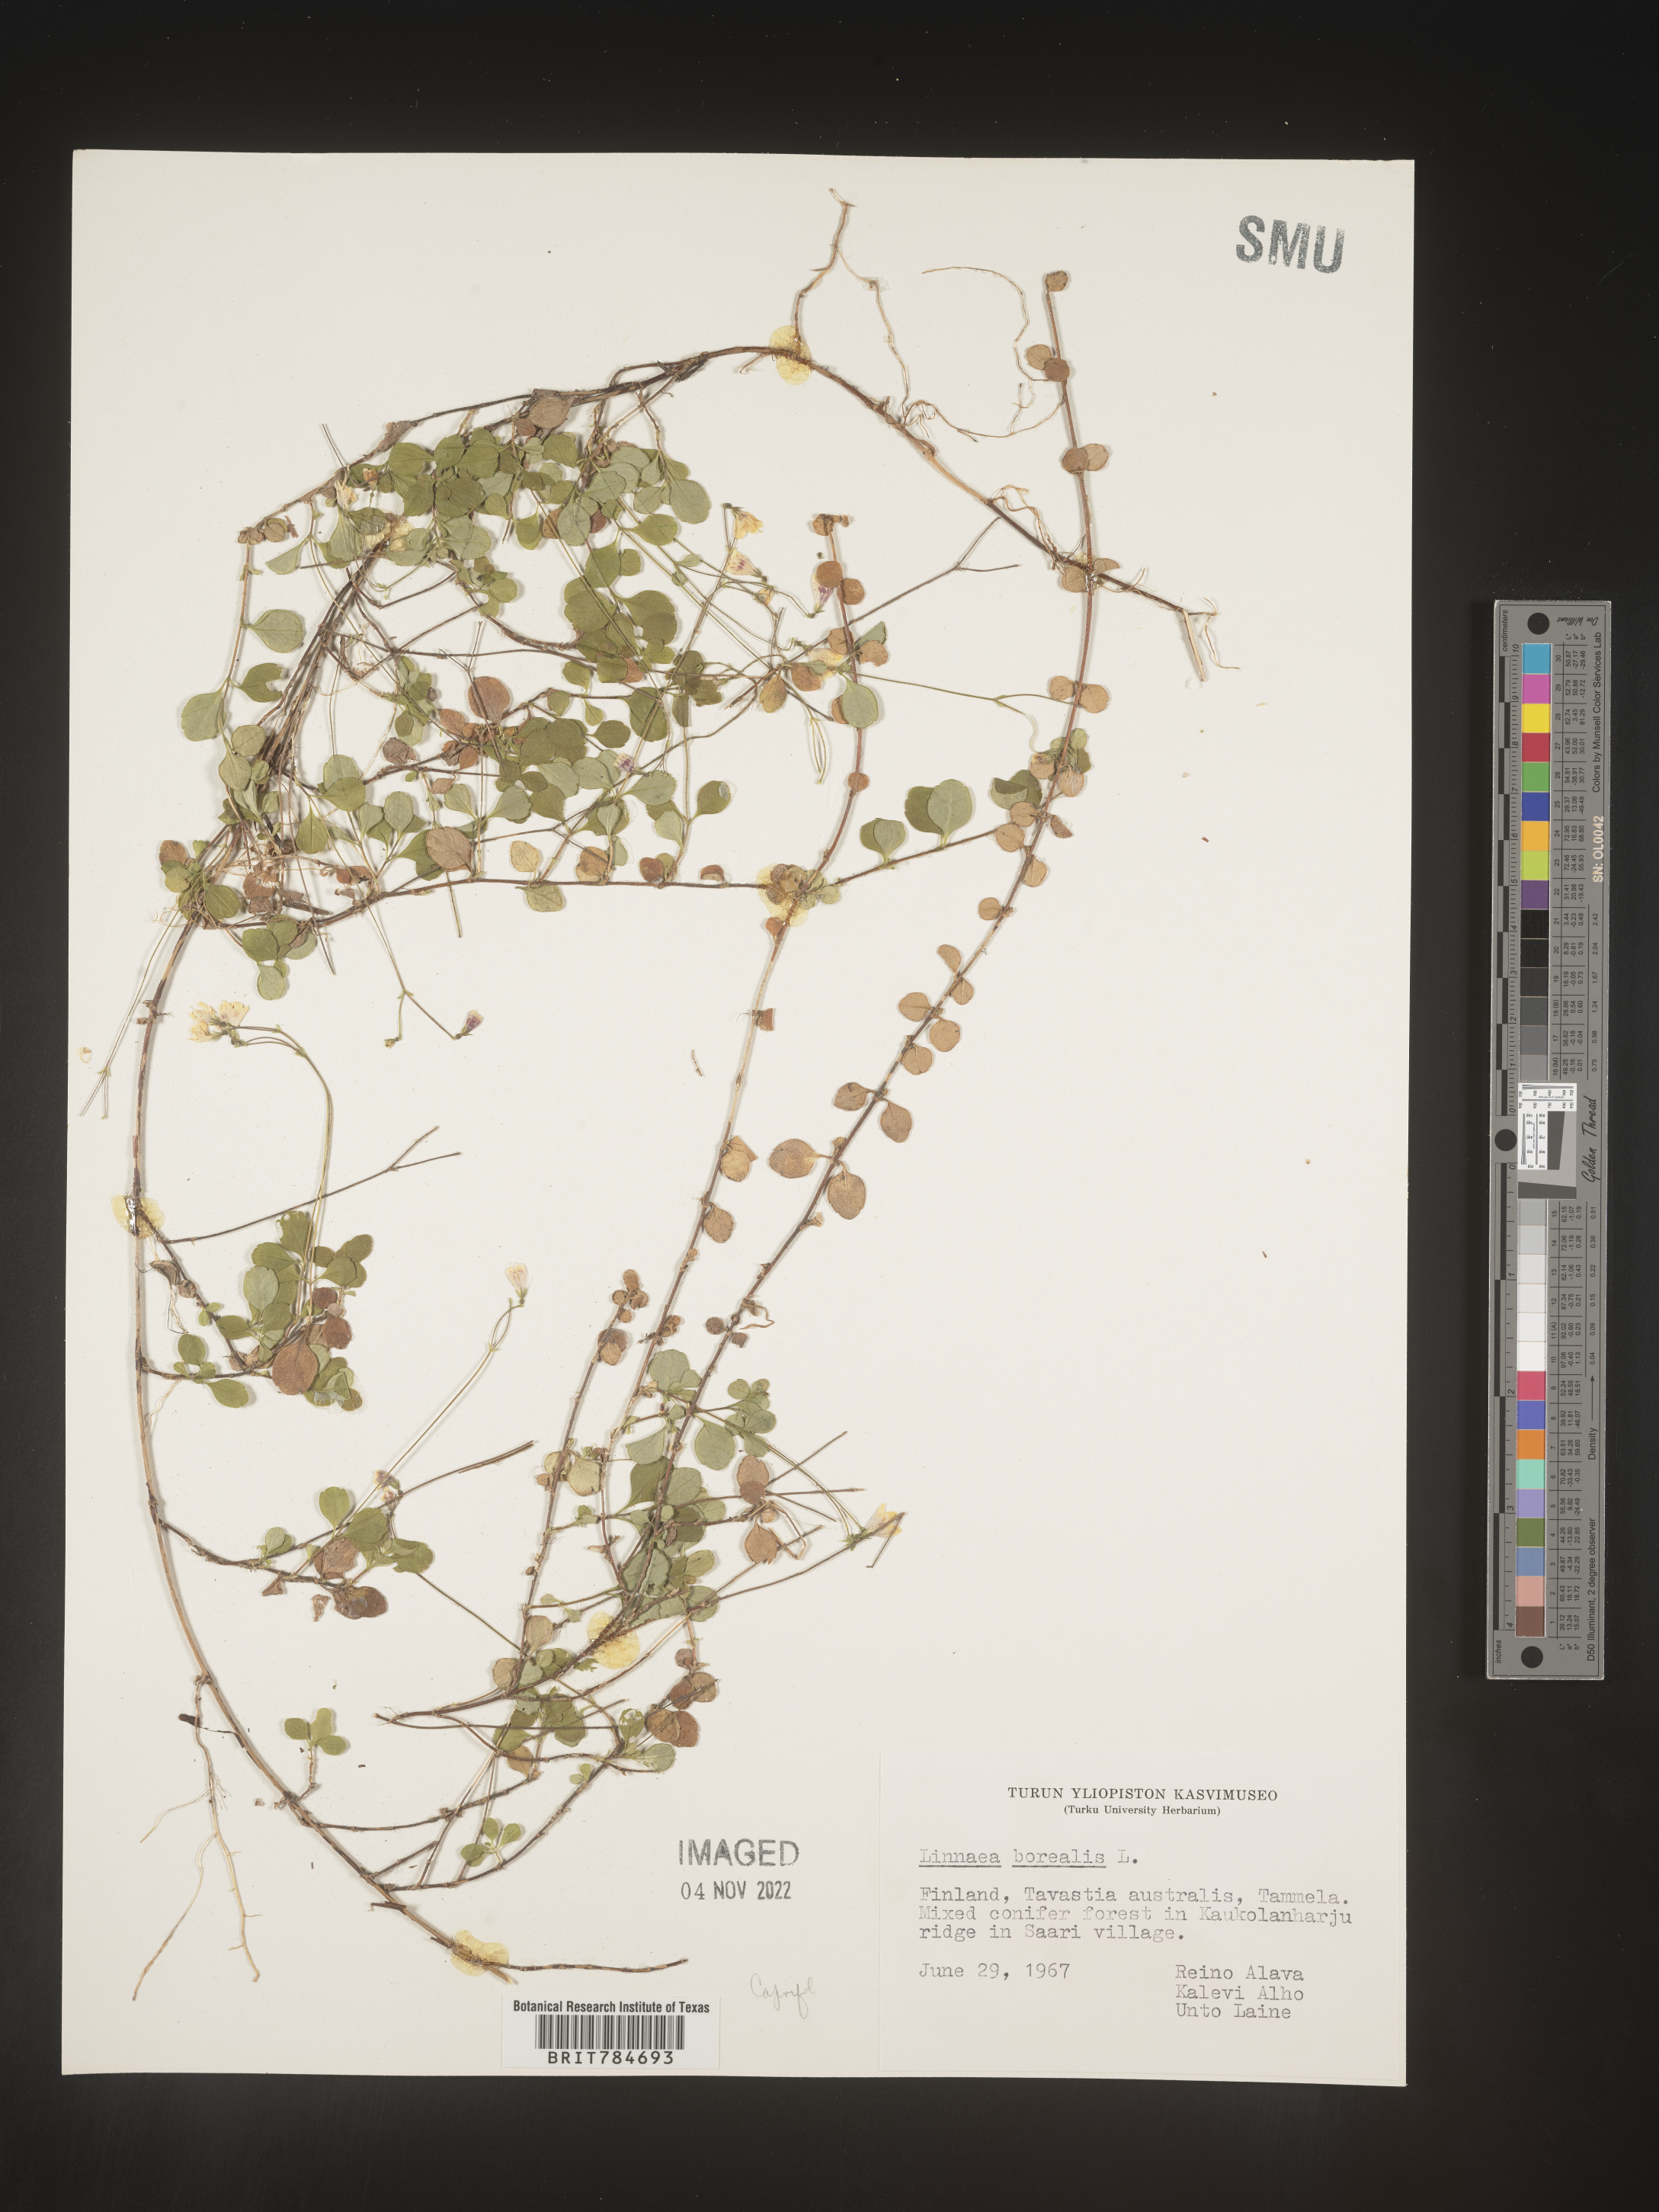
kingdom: Plantae
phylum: Tracheophyta
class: Magnoliopsida
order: Dipsacales
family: Caprifoliaceae
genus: Linnaea
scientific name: Linnaea
